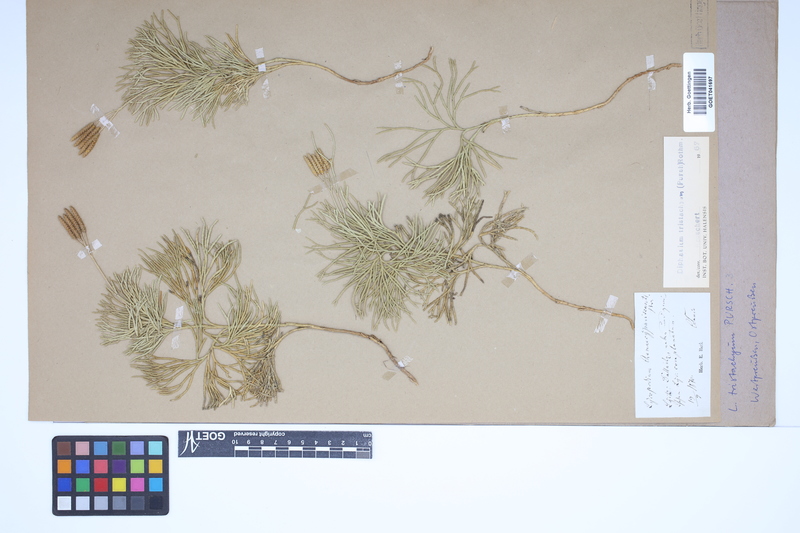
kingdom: Plantae
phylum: Tracheophyta
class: Lycopodiopsida
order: Lycopodiales
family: Lycopodiaceae
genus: Diphasiastrum
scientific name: Diphasiastrum tristachyum
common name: Blue ground-cedar
